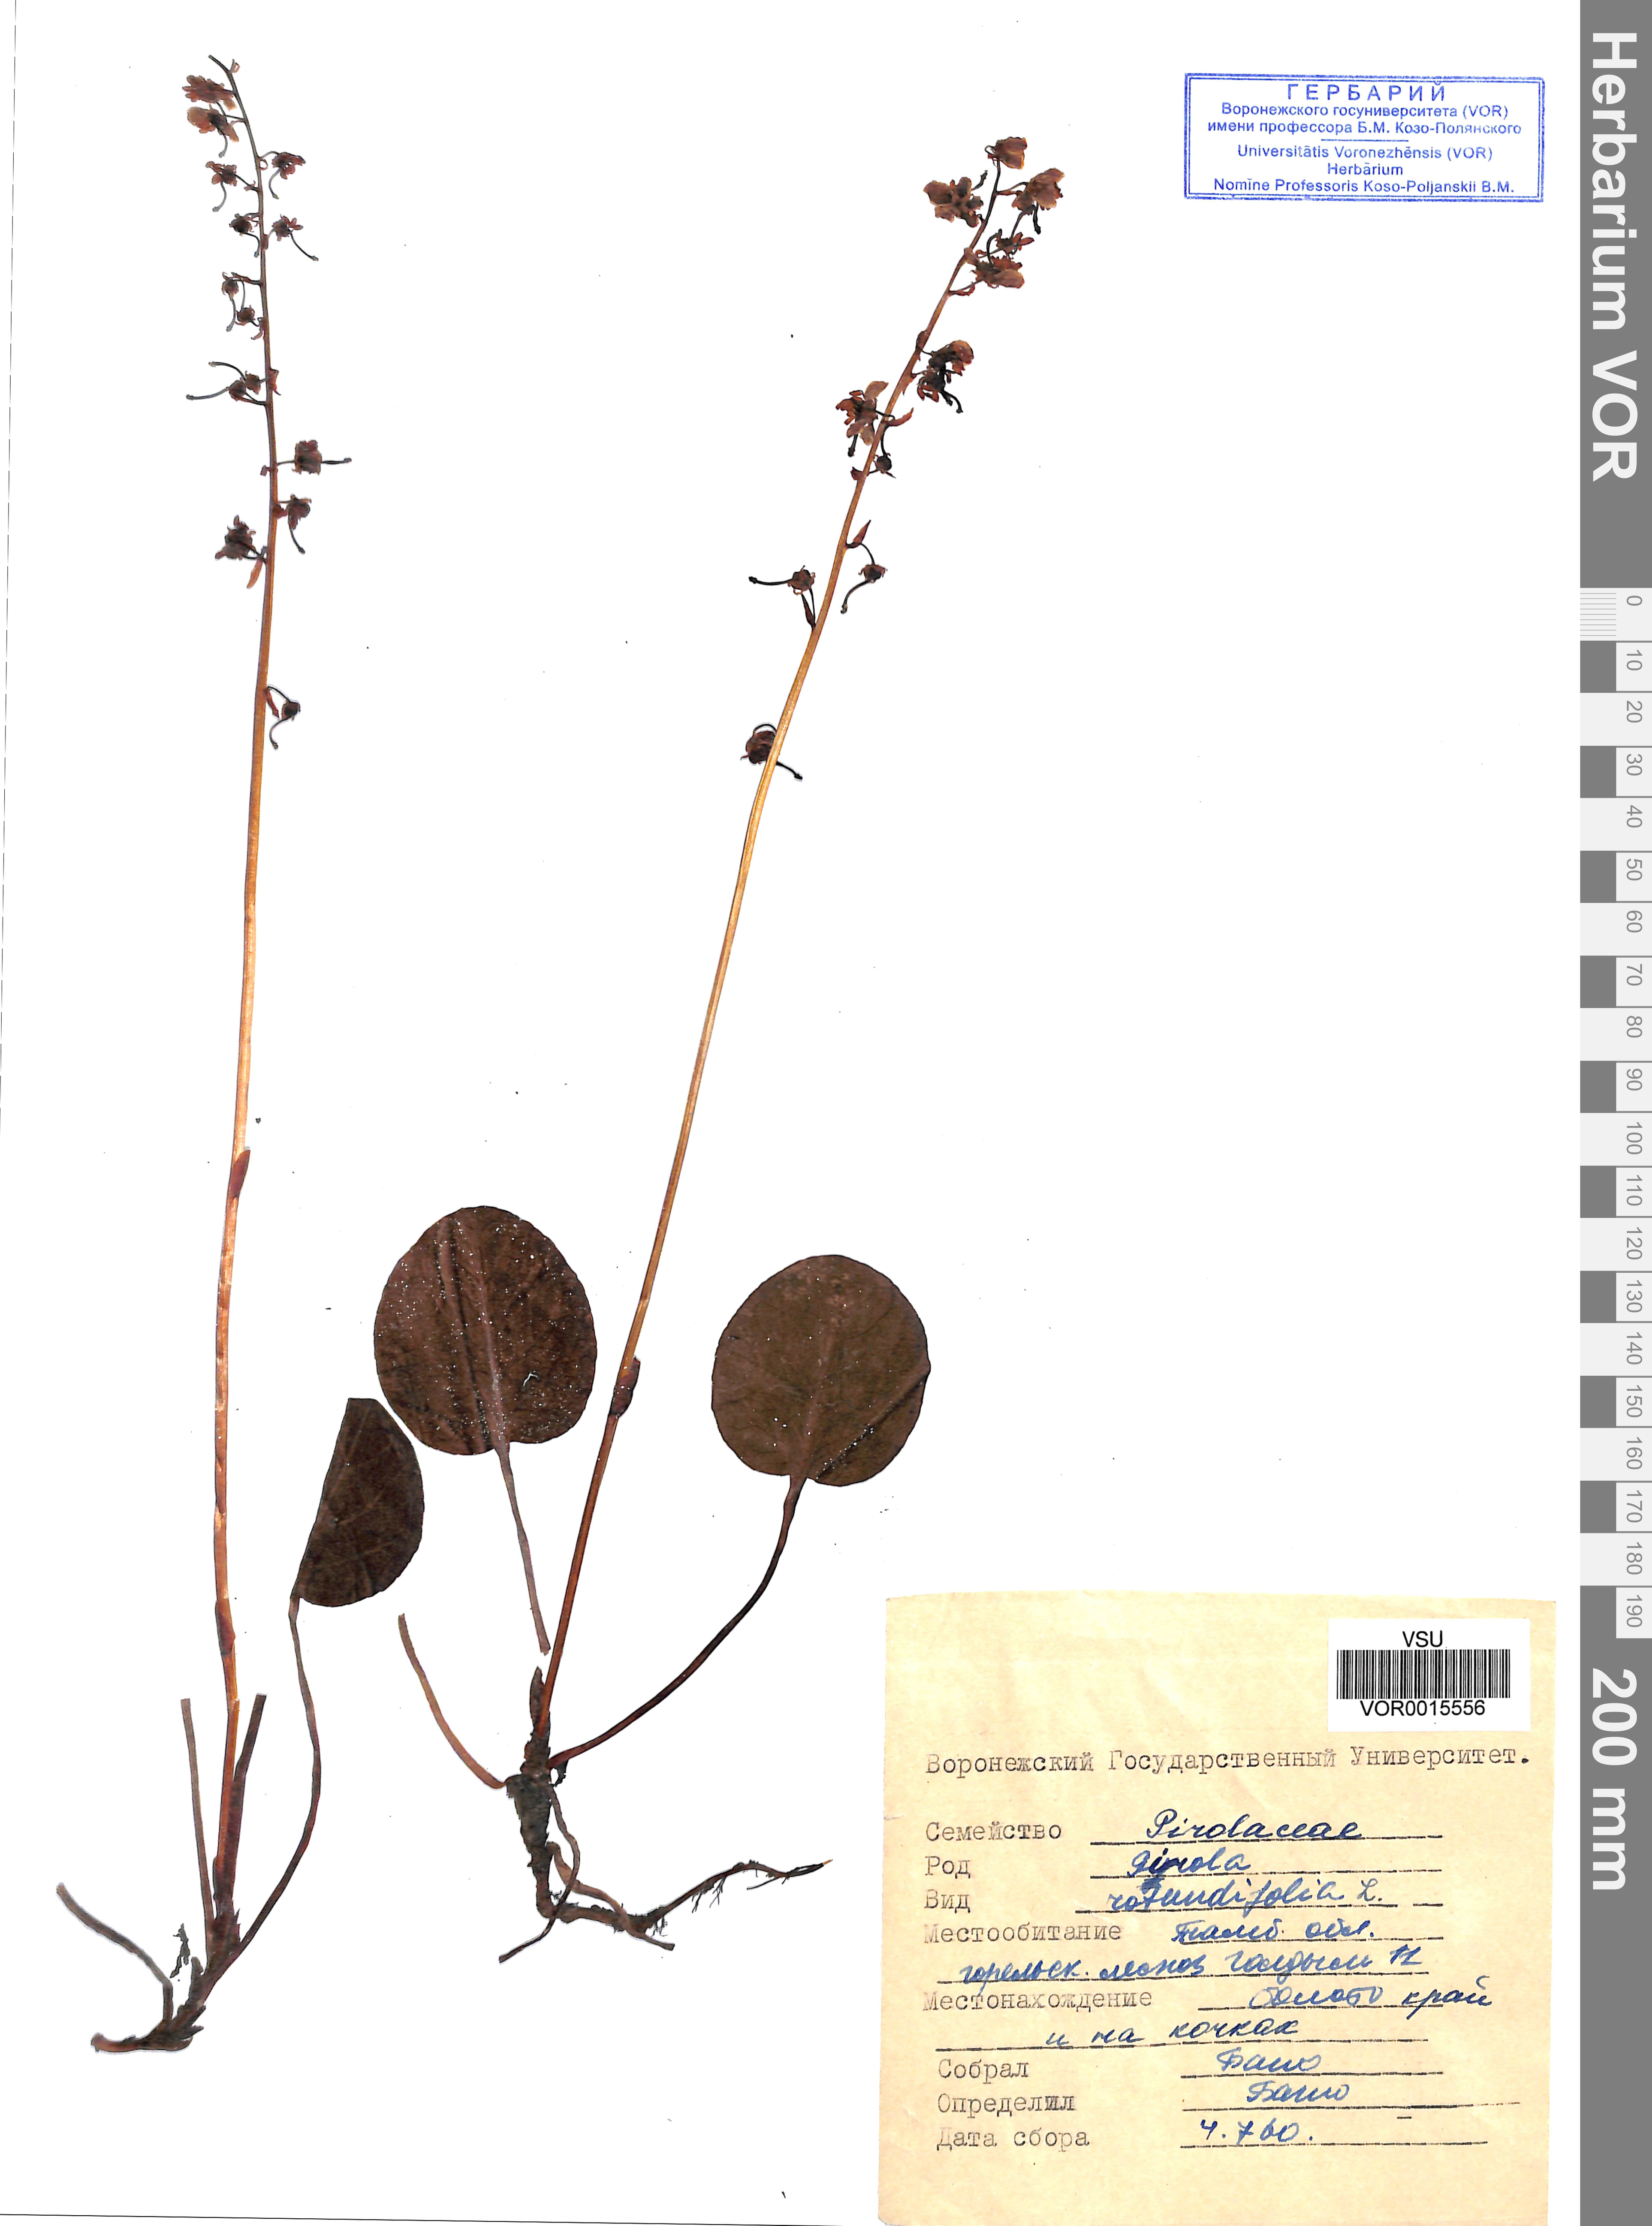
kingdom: Plantae
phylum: Tracheophyta
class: Magnoliopsida
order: Ericales
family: Ericaceae
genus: Pyrola
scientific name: Pyrola rotundifolia
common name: Round-leaved wintergreen
